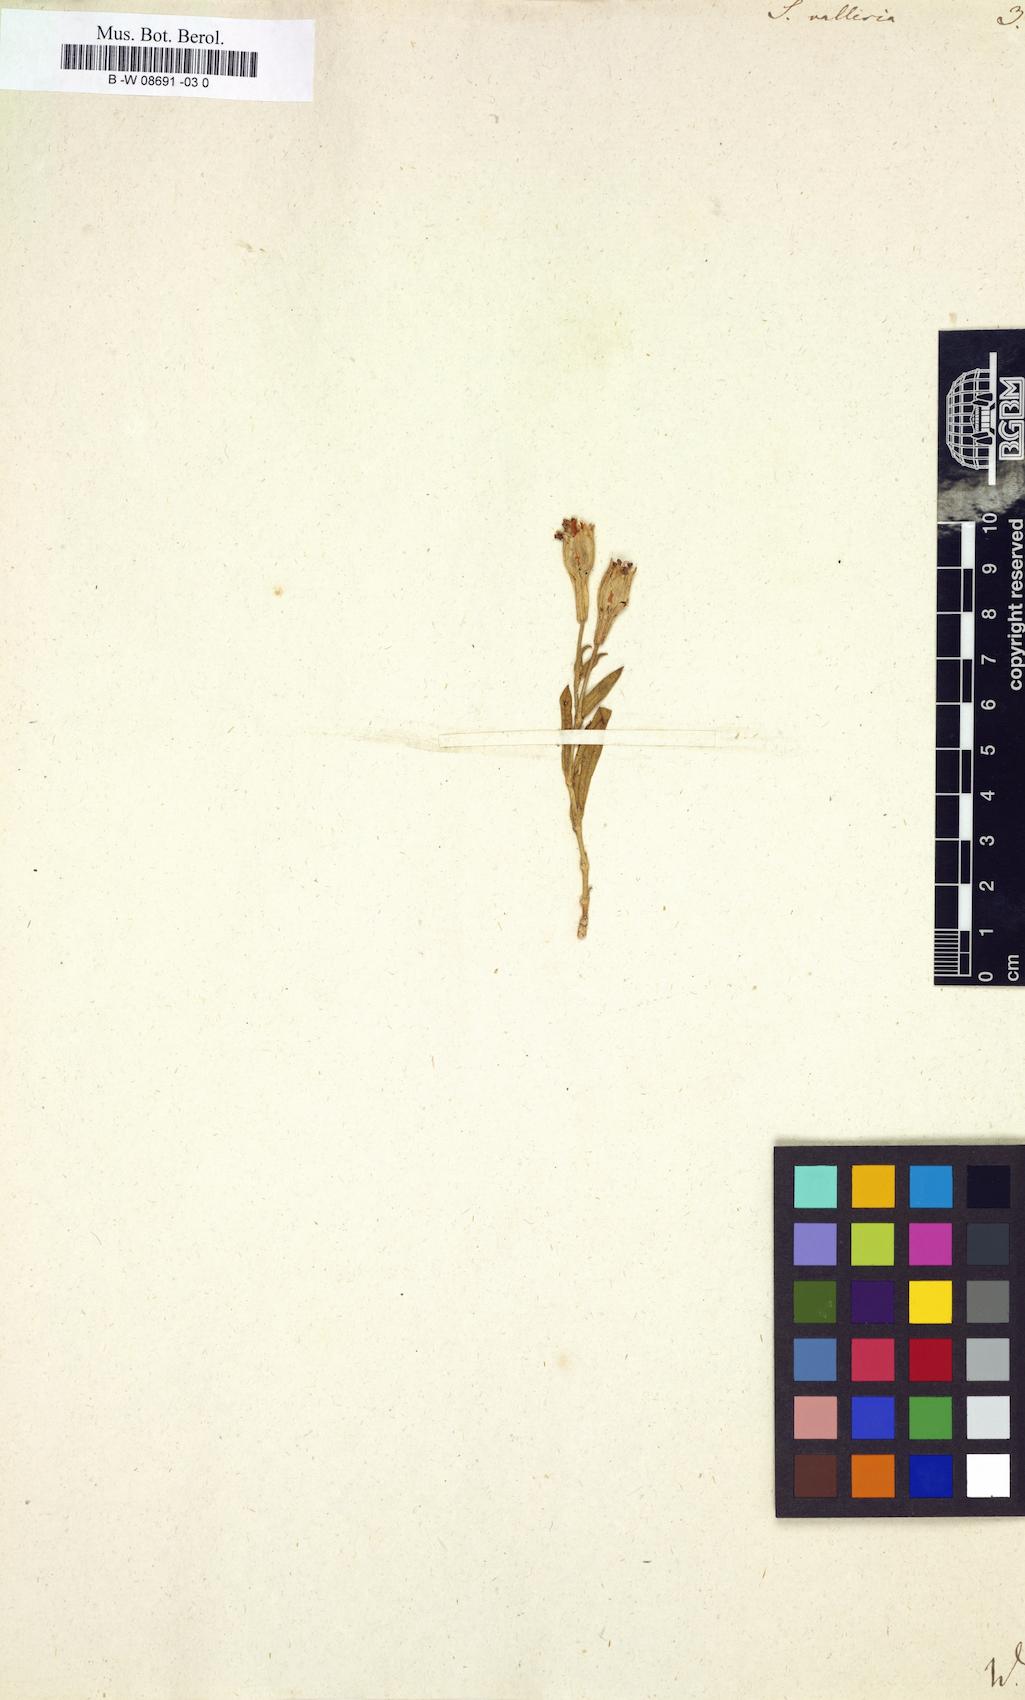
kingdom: Plantae
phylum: Tracheophyta
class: Magnoliopsida
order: Caryophyllales
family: Caryophyllaceae
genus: Silene
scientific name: Silene vallesia
